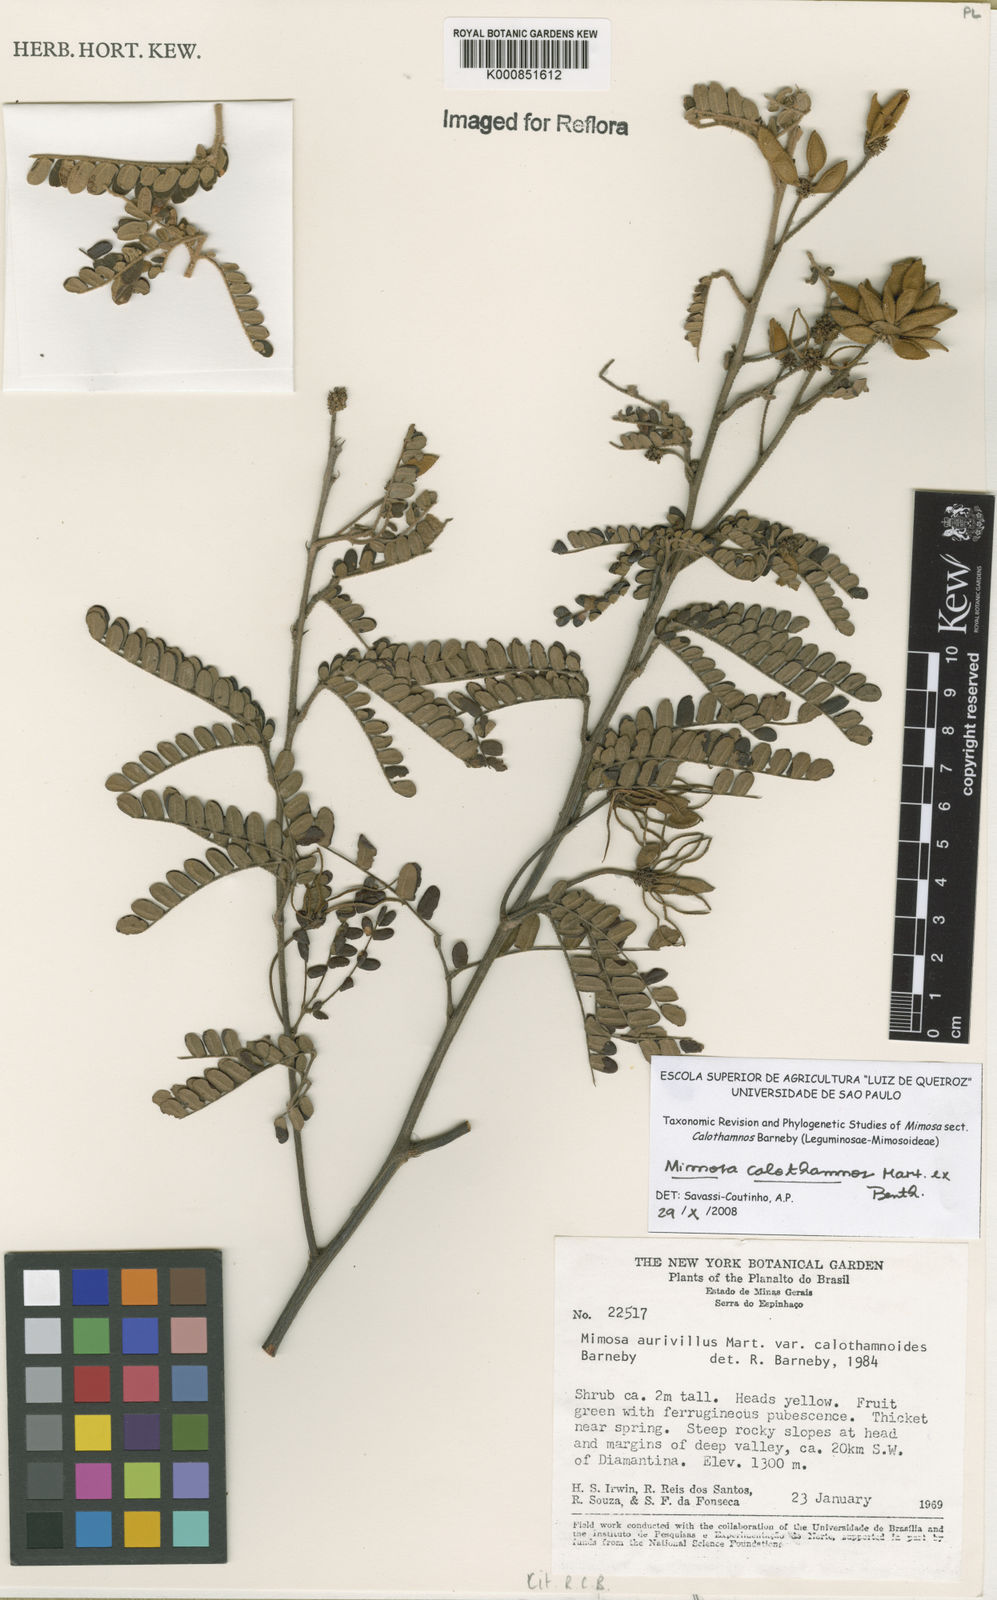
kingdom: Plantae
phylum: Tracheophyta
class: Magnoliopsida
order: Fabales
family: Fabaceae
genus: Mimosa
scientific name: Mimosa aurivillus
